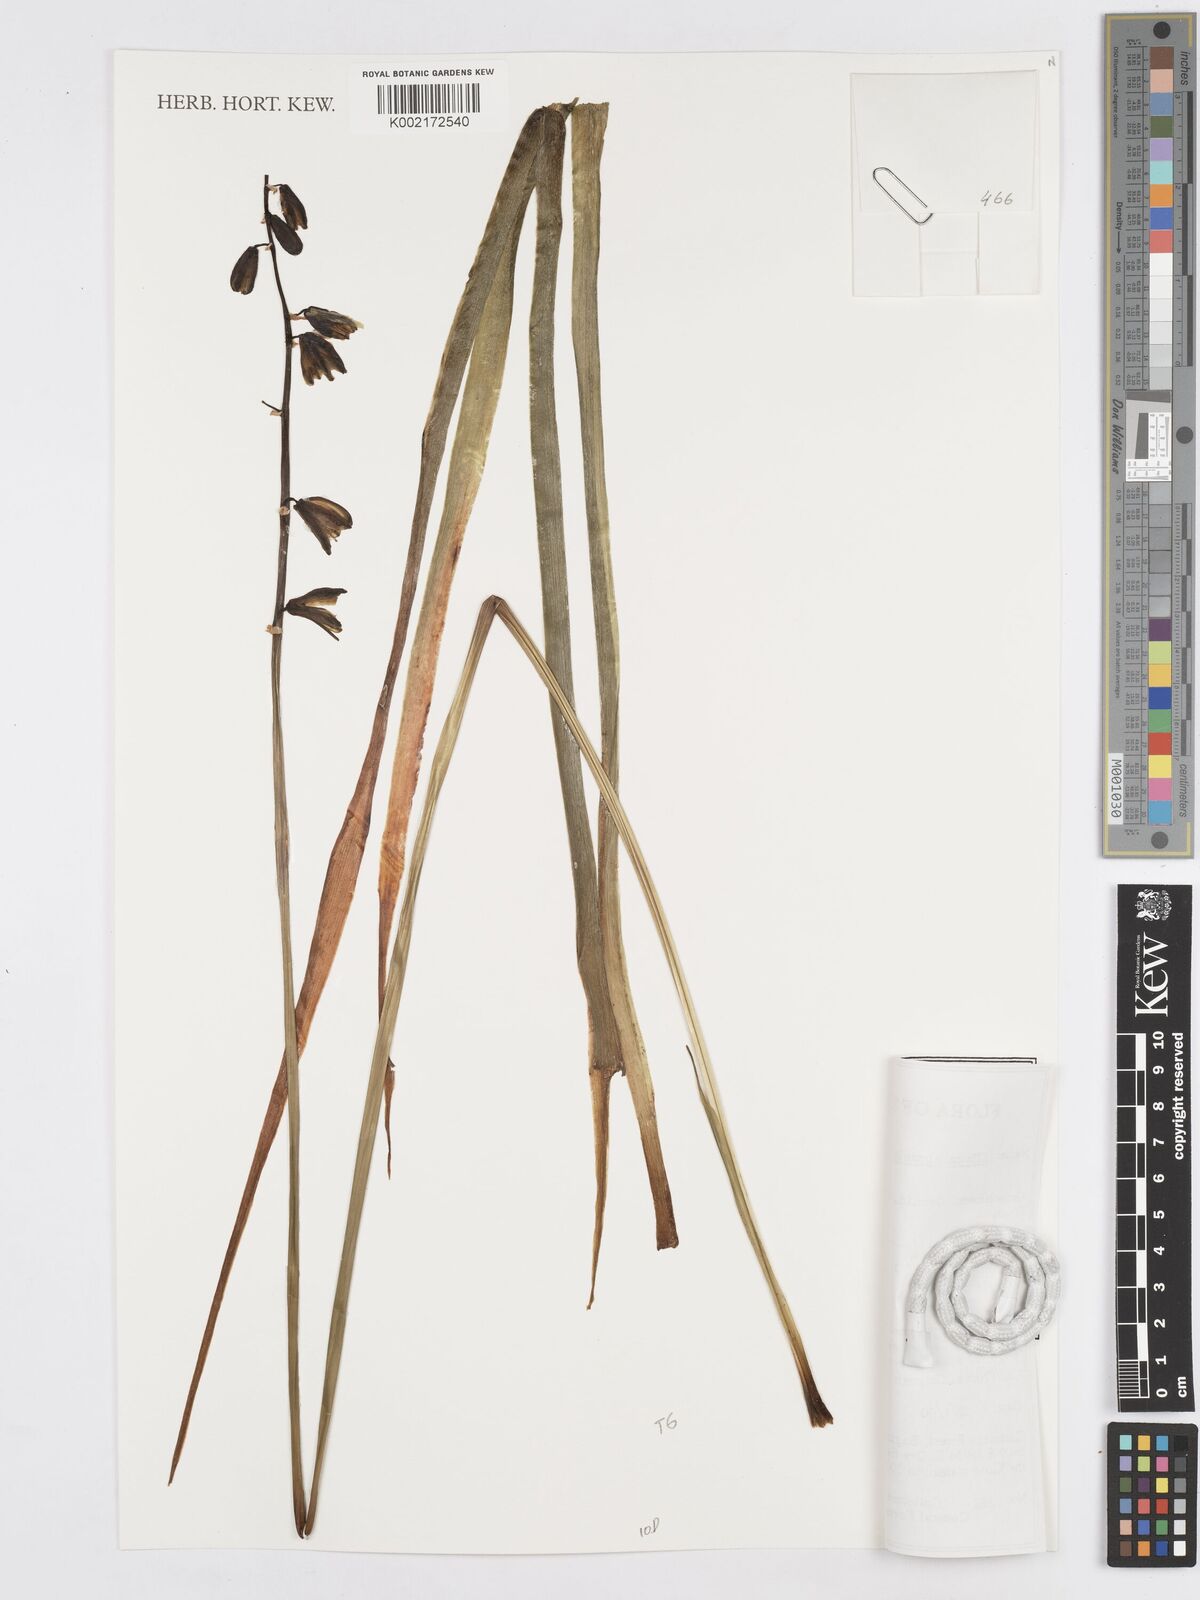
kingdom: Plantae
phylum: Tracheophyta
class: Liliopsida
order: Asparagales
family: Asparagaceae
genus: Albuca
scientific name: Albuca abyssinica
